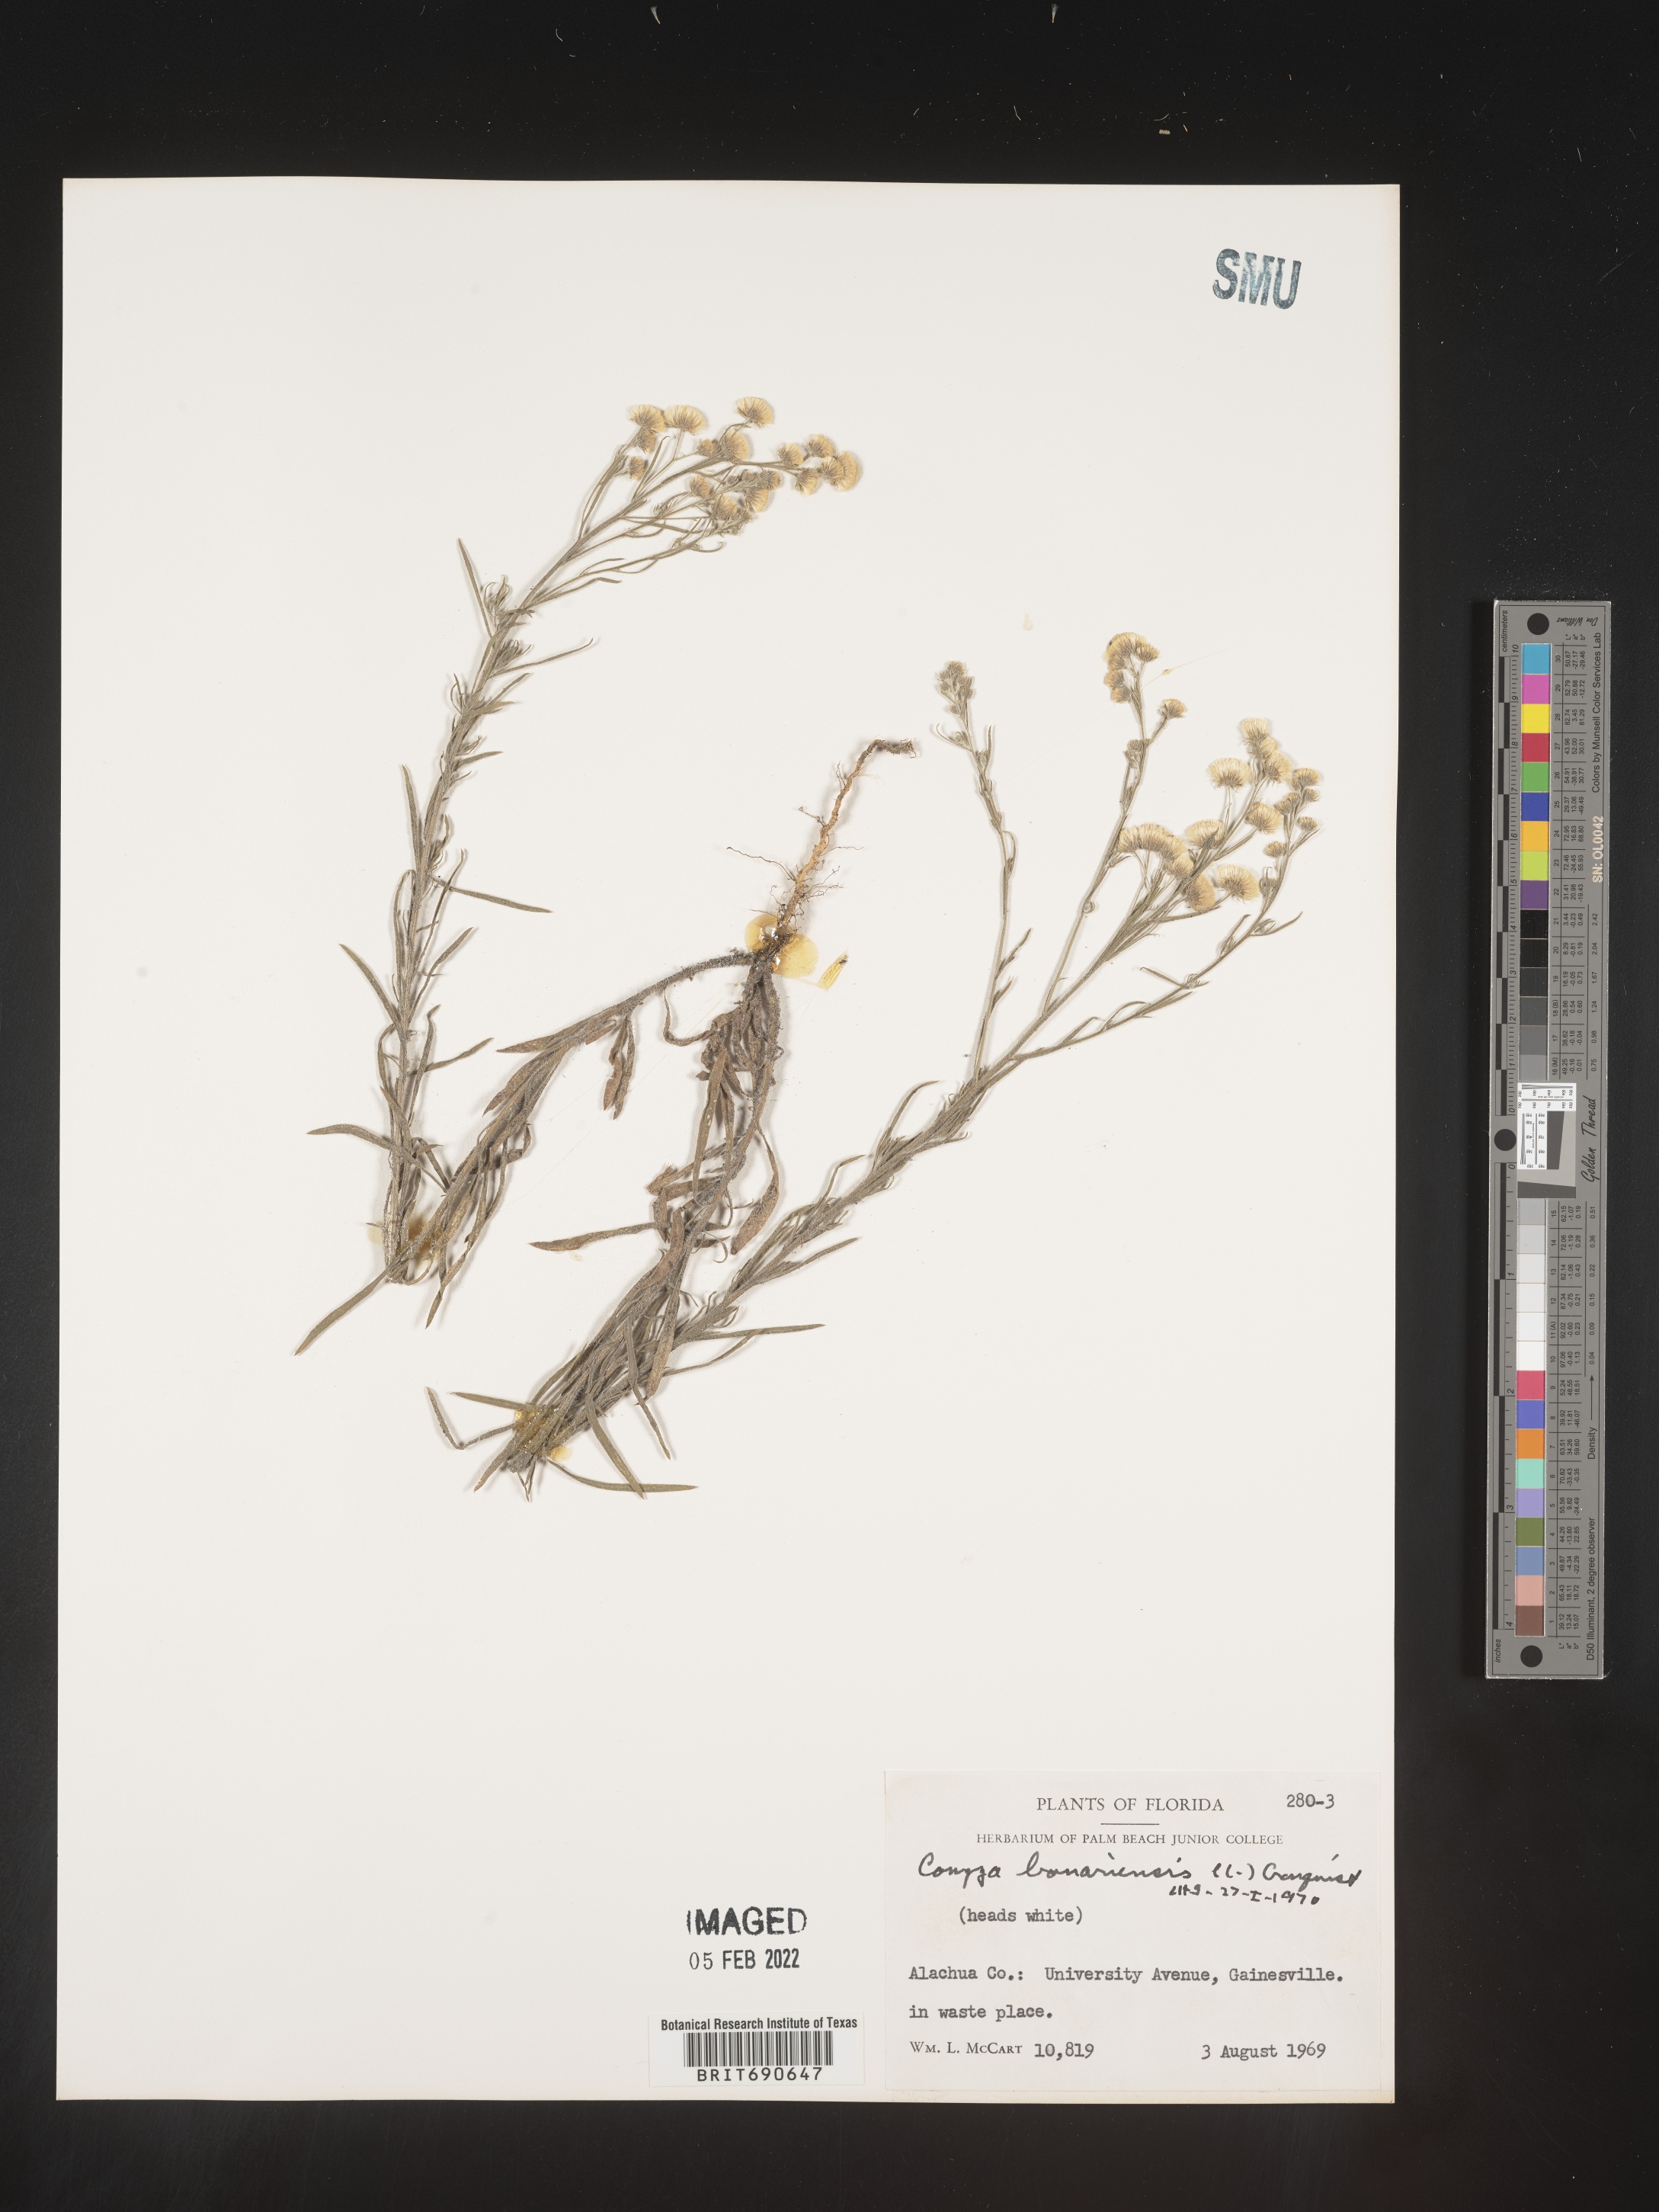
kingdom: Plantae
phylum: Tracheophyta
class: Magnoliopsida
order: Asterales
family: Asteraceae
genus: Erigeron
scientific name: Erigeron bonariensis
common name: Argentine fleabane
